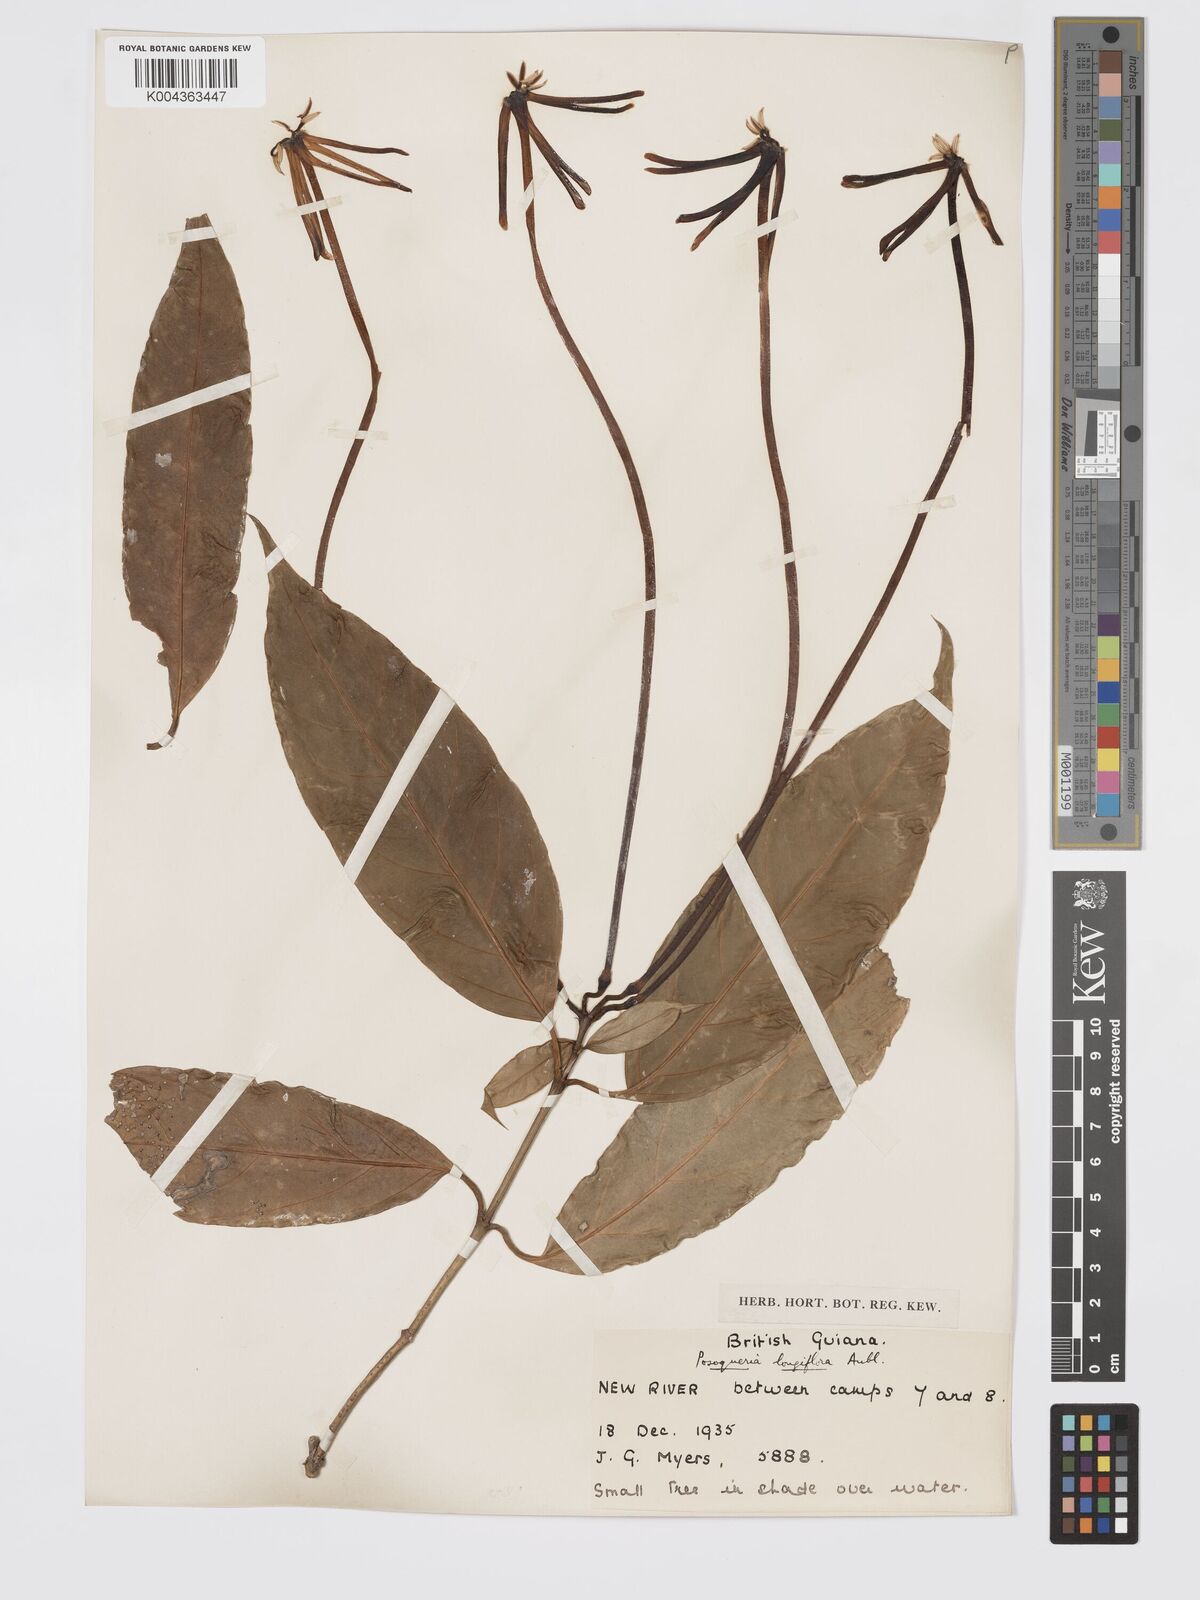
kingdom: Plantae
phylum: Tracheophyta
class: Magnoliopsida
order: Gentianales
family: Rubiaceae
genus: Posoqueria
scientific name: Posoqueria
